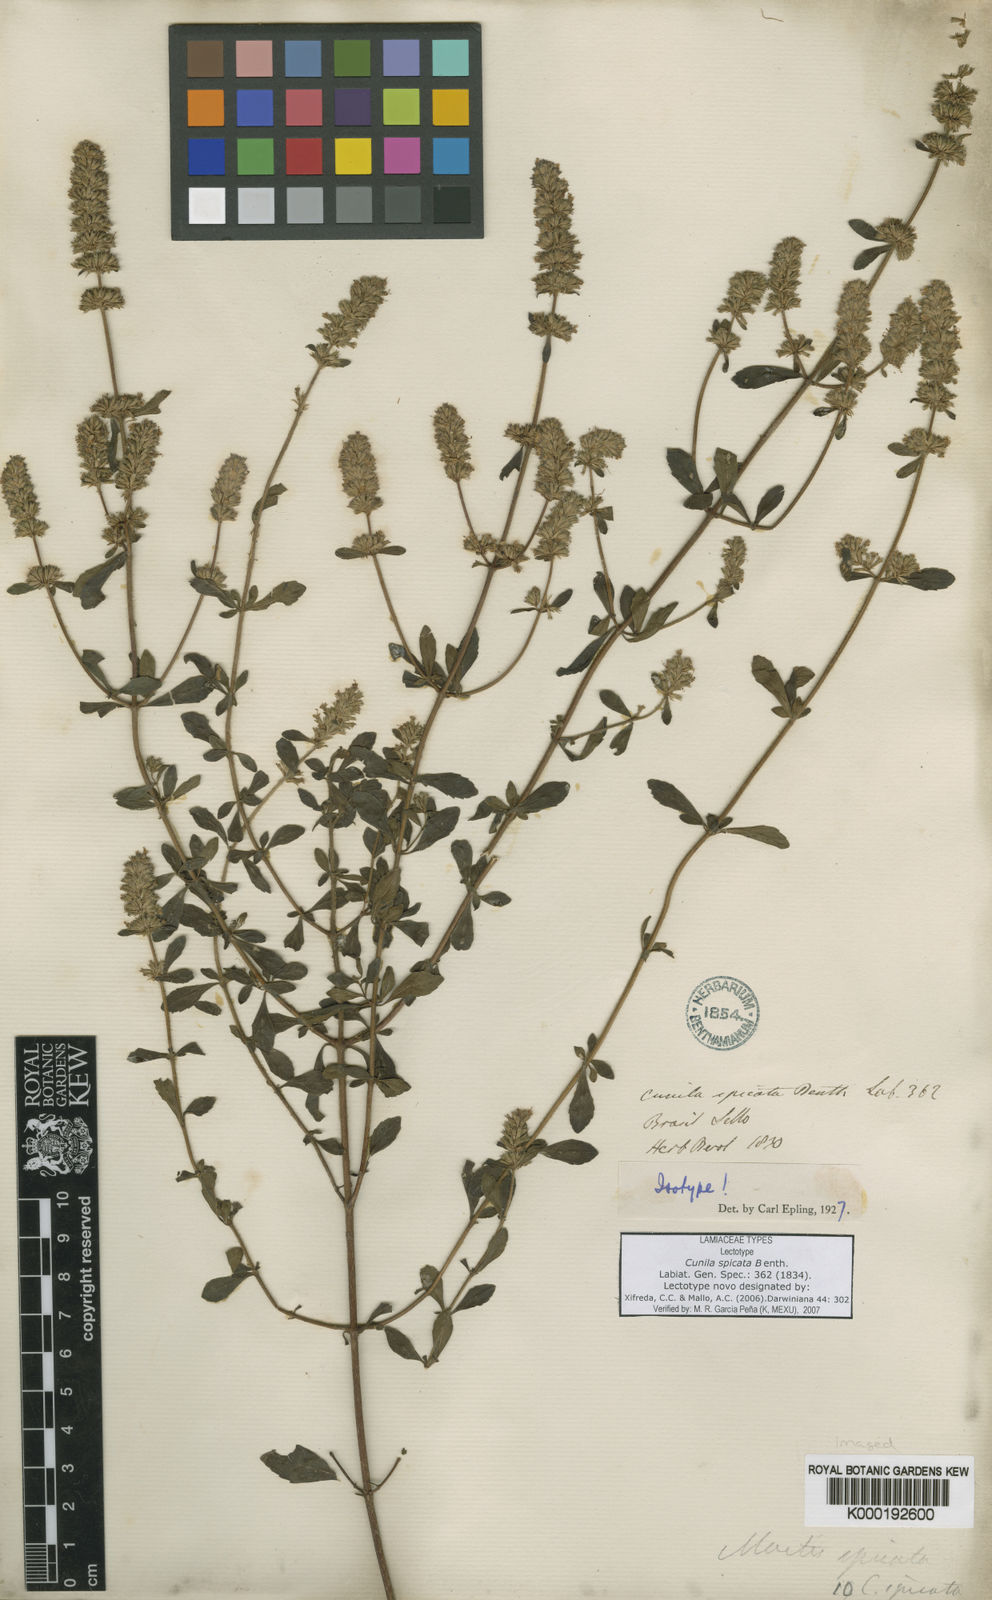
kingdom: Plantae
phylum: Tracheophyta
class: Magnoliopsida
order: Lamiales
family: Lamiaceae
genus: Cunila
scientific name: Cunila spicata
